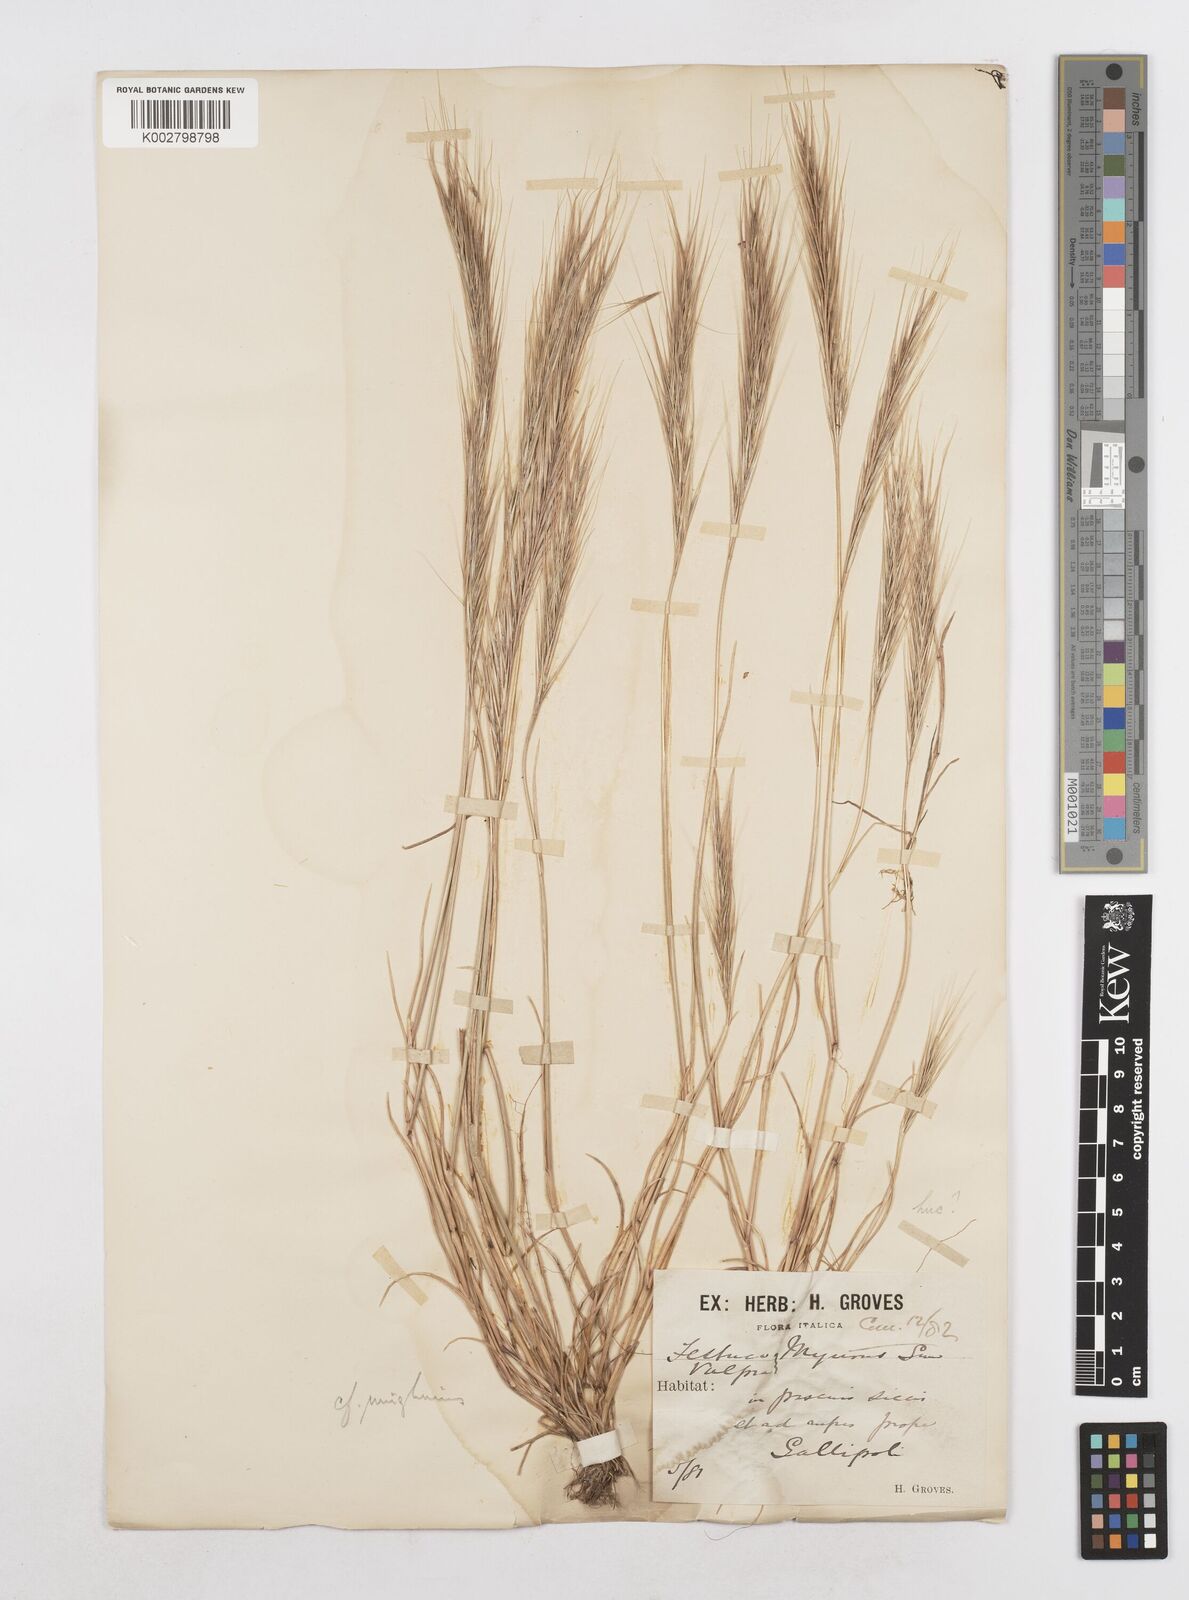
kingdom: Plantae
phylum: Tracheophyta
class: Liliopsida
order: Poales
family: Poaceae
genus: Festuca
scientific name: Festuca fasciculata
